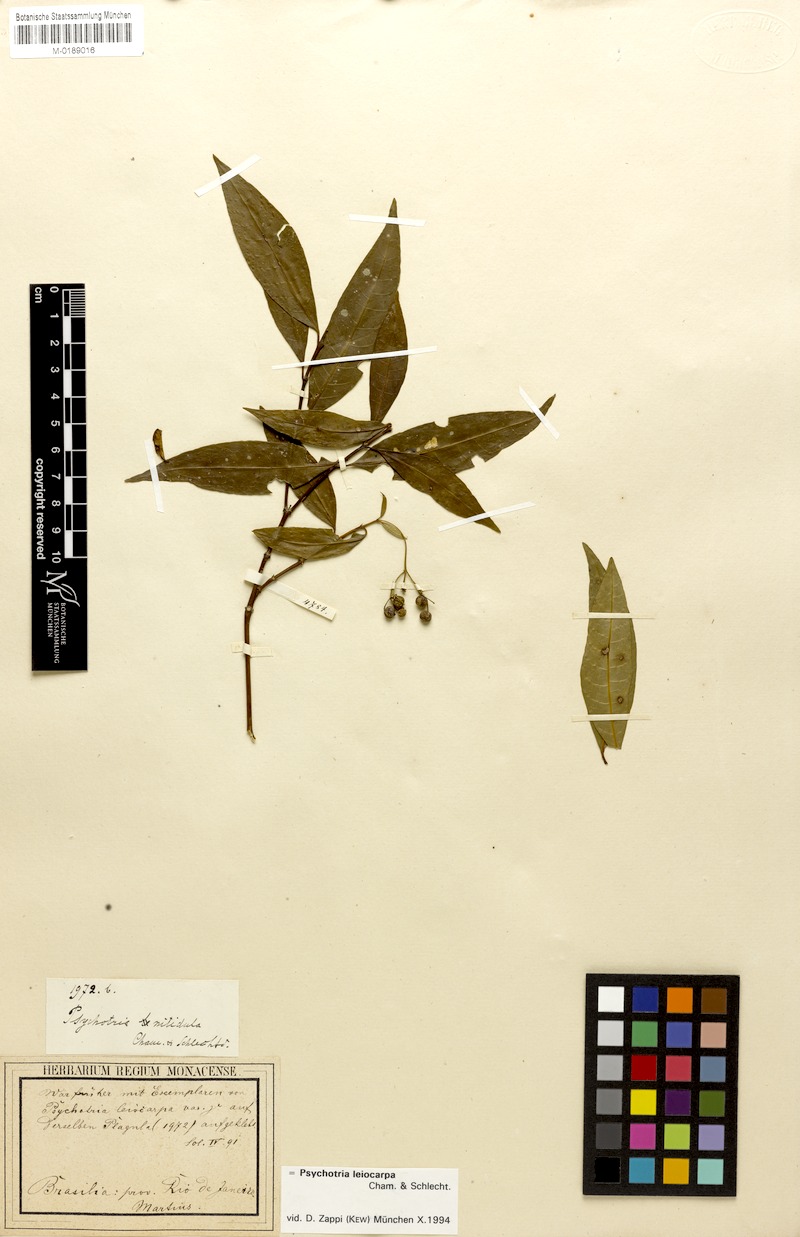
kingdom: Plantae
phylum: Tracheophyta
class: Magnoliopsida
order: Gentianales
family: Rubiaceae
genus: Psychotria
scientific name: Psychotria leiocarpa
